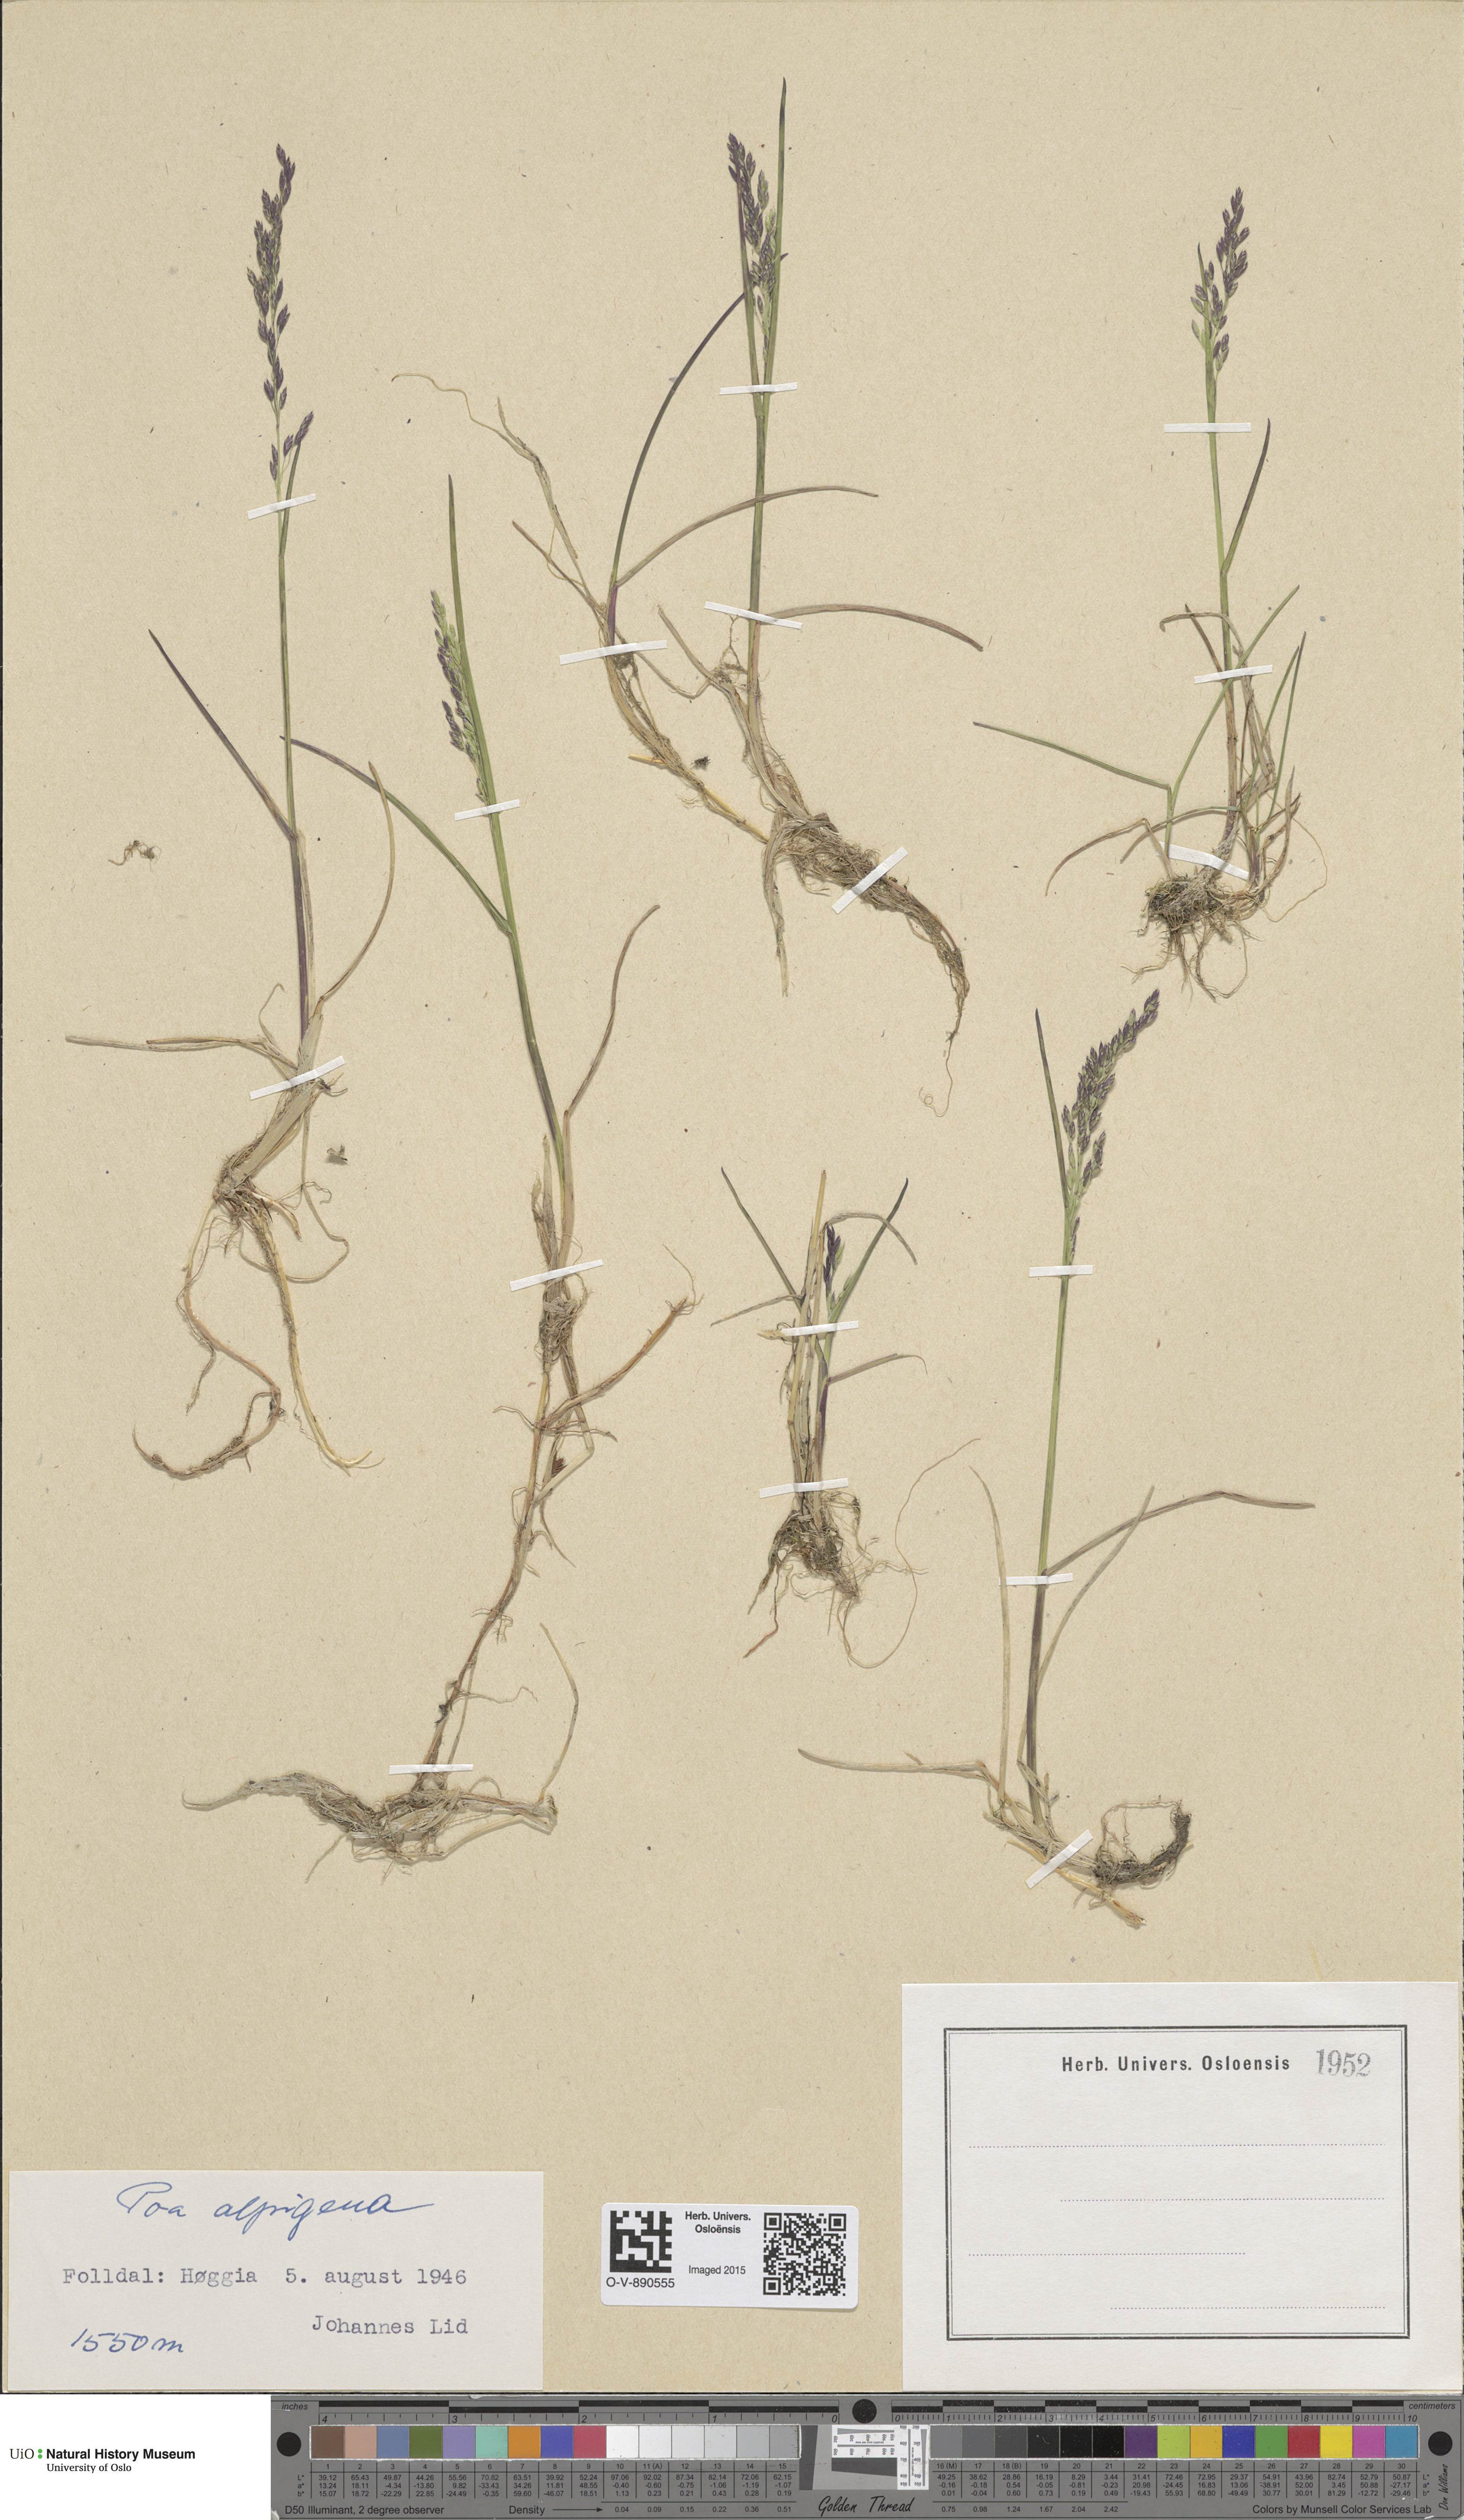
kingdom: Plantae
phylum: Tracheophyta
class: Liliopsida
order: Poales
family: Poaceae
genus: Poa
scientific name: Poa alpigena
